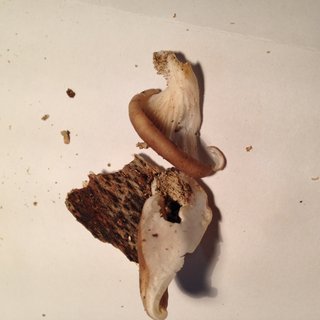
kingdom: Fungi
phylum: Basidiomycota
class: Agaricomycetes
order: Agaricales
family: Pleurotaceae
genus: Pleurotus
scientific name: Pleurotus ostreatus
